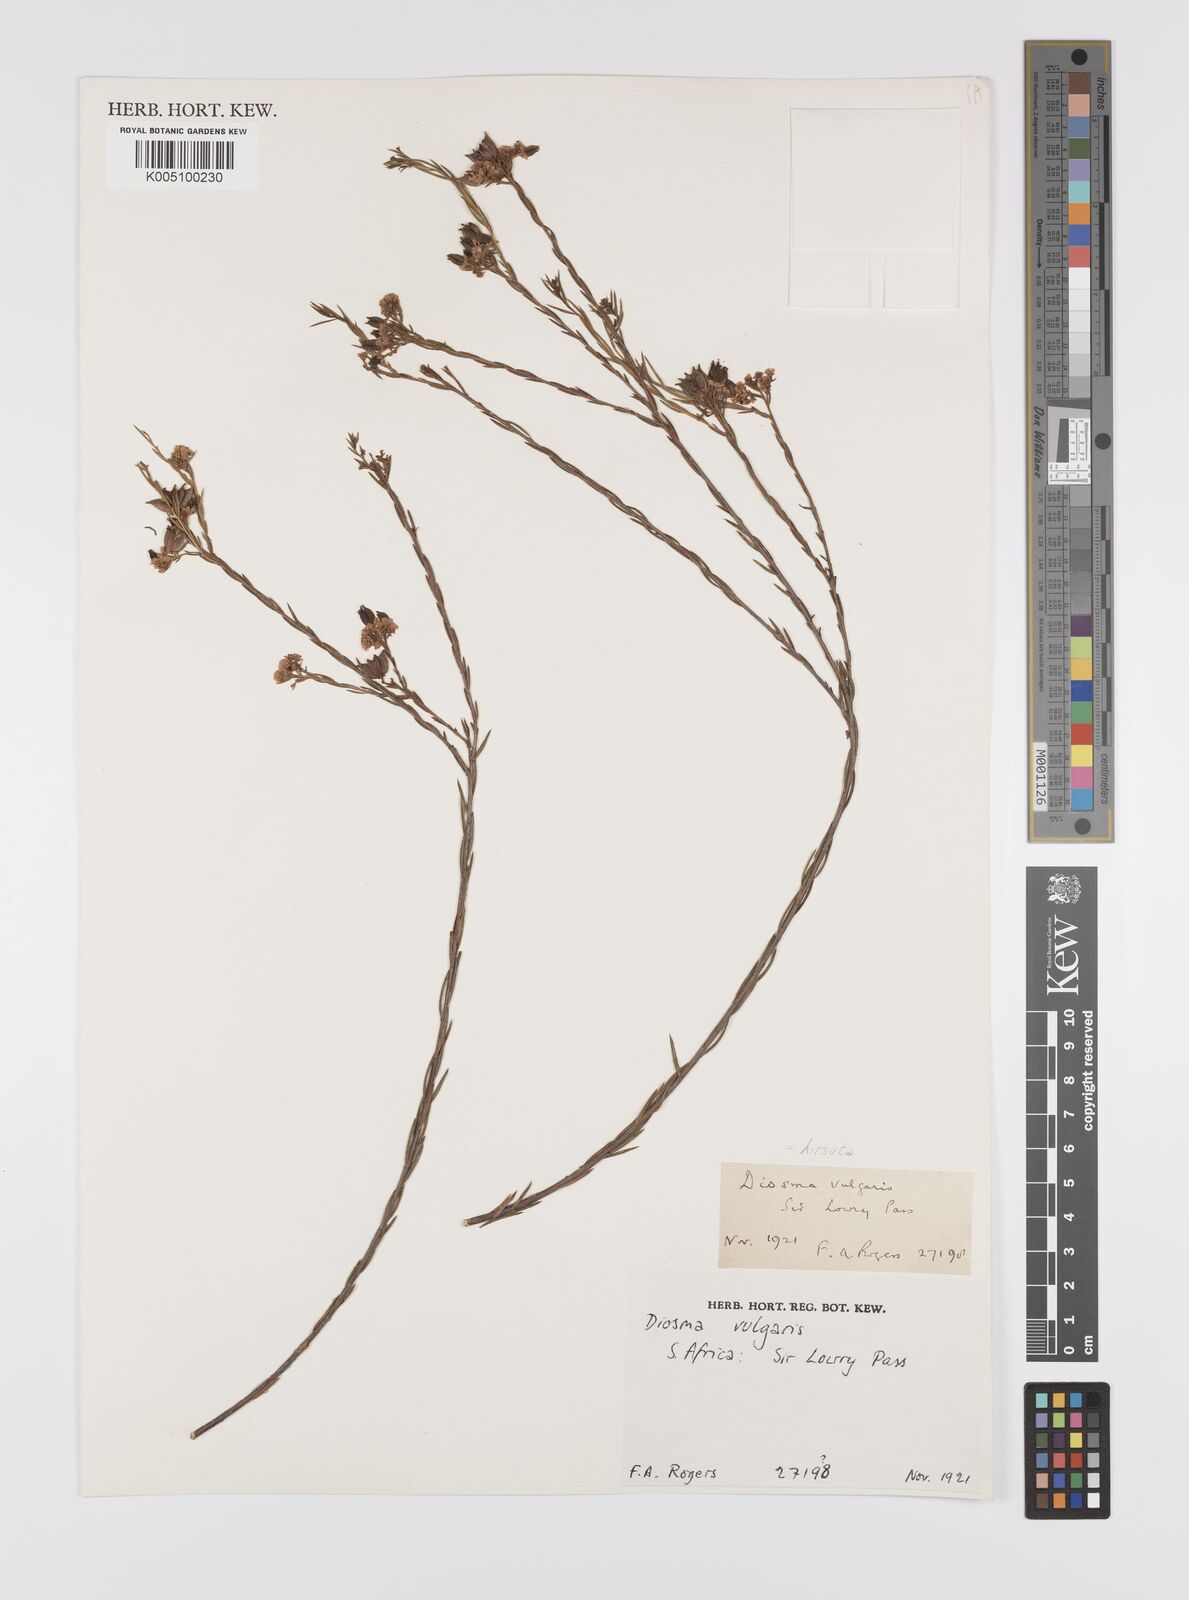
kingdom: Plantae
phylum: Tracheophyta
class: Magnoliopsida
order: Sapindales
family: Rutaceae
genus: Diosma
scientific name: Diosma hirsuta
